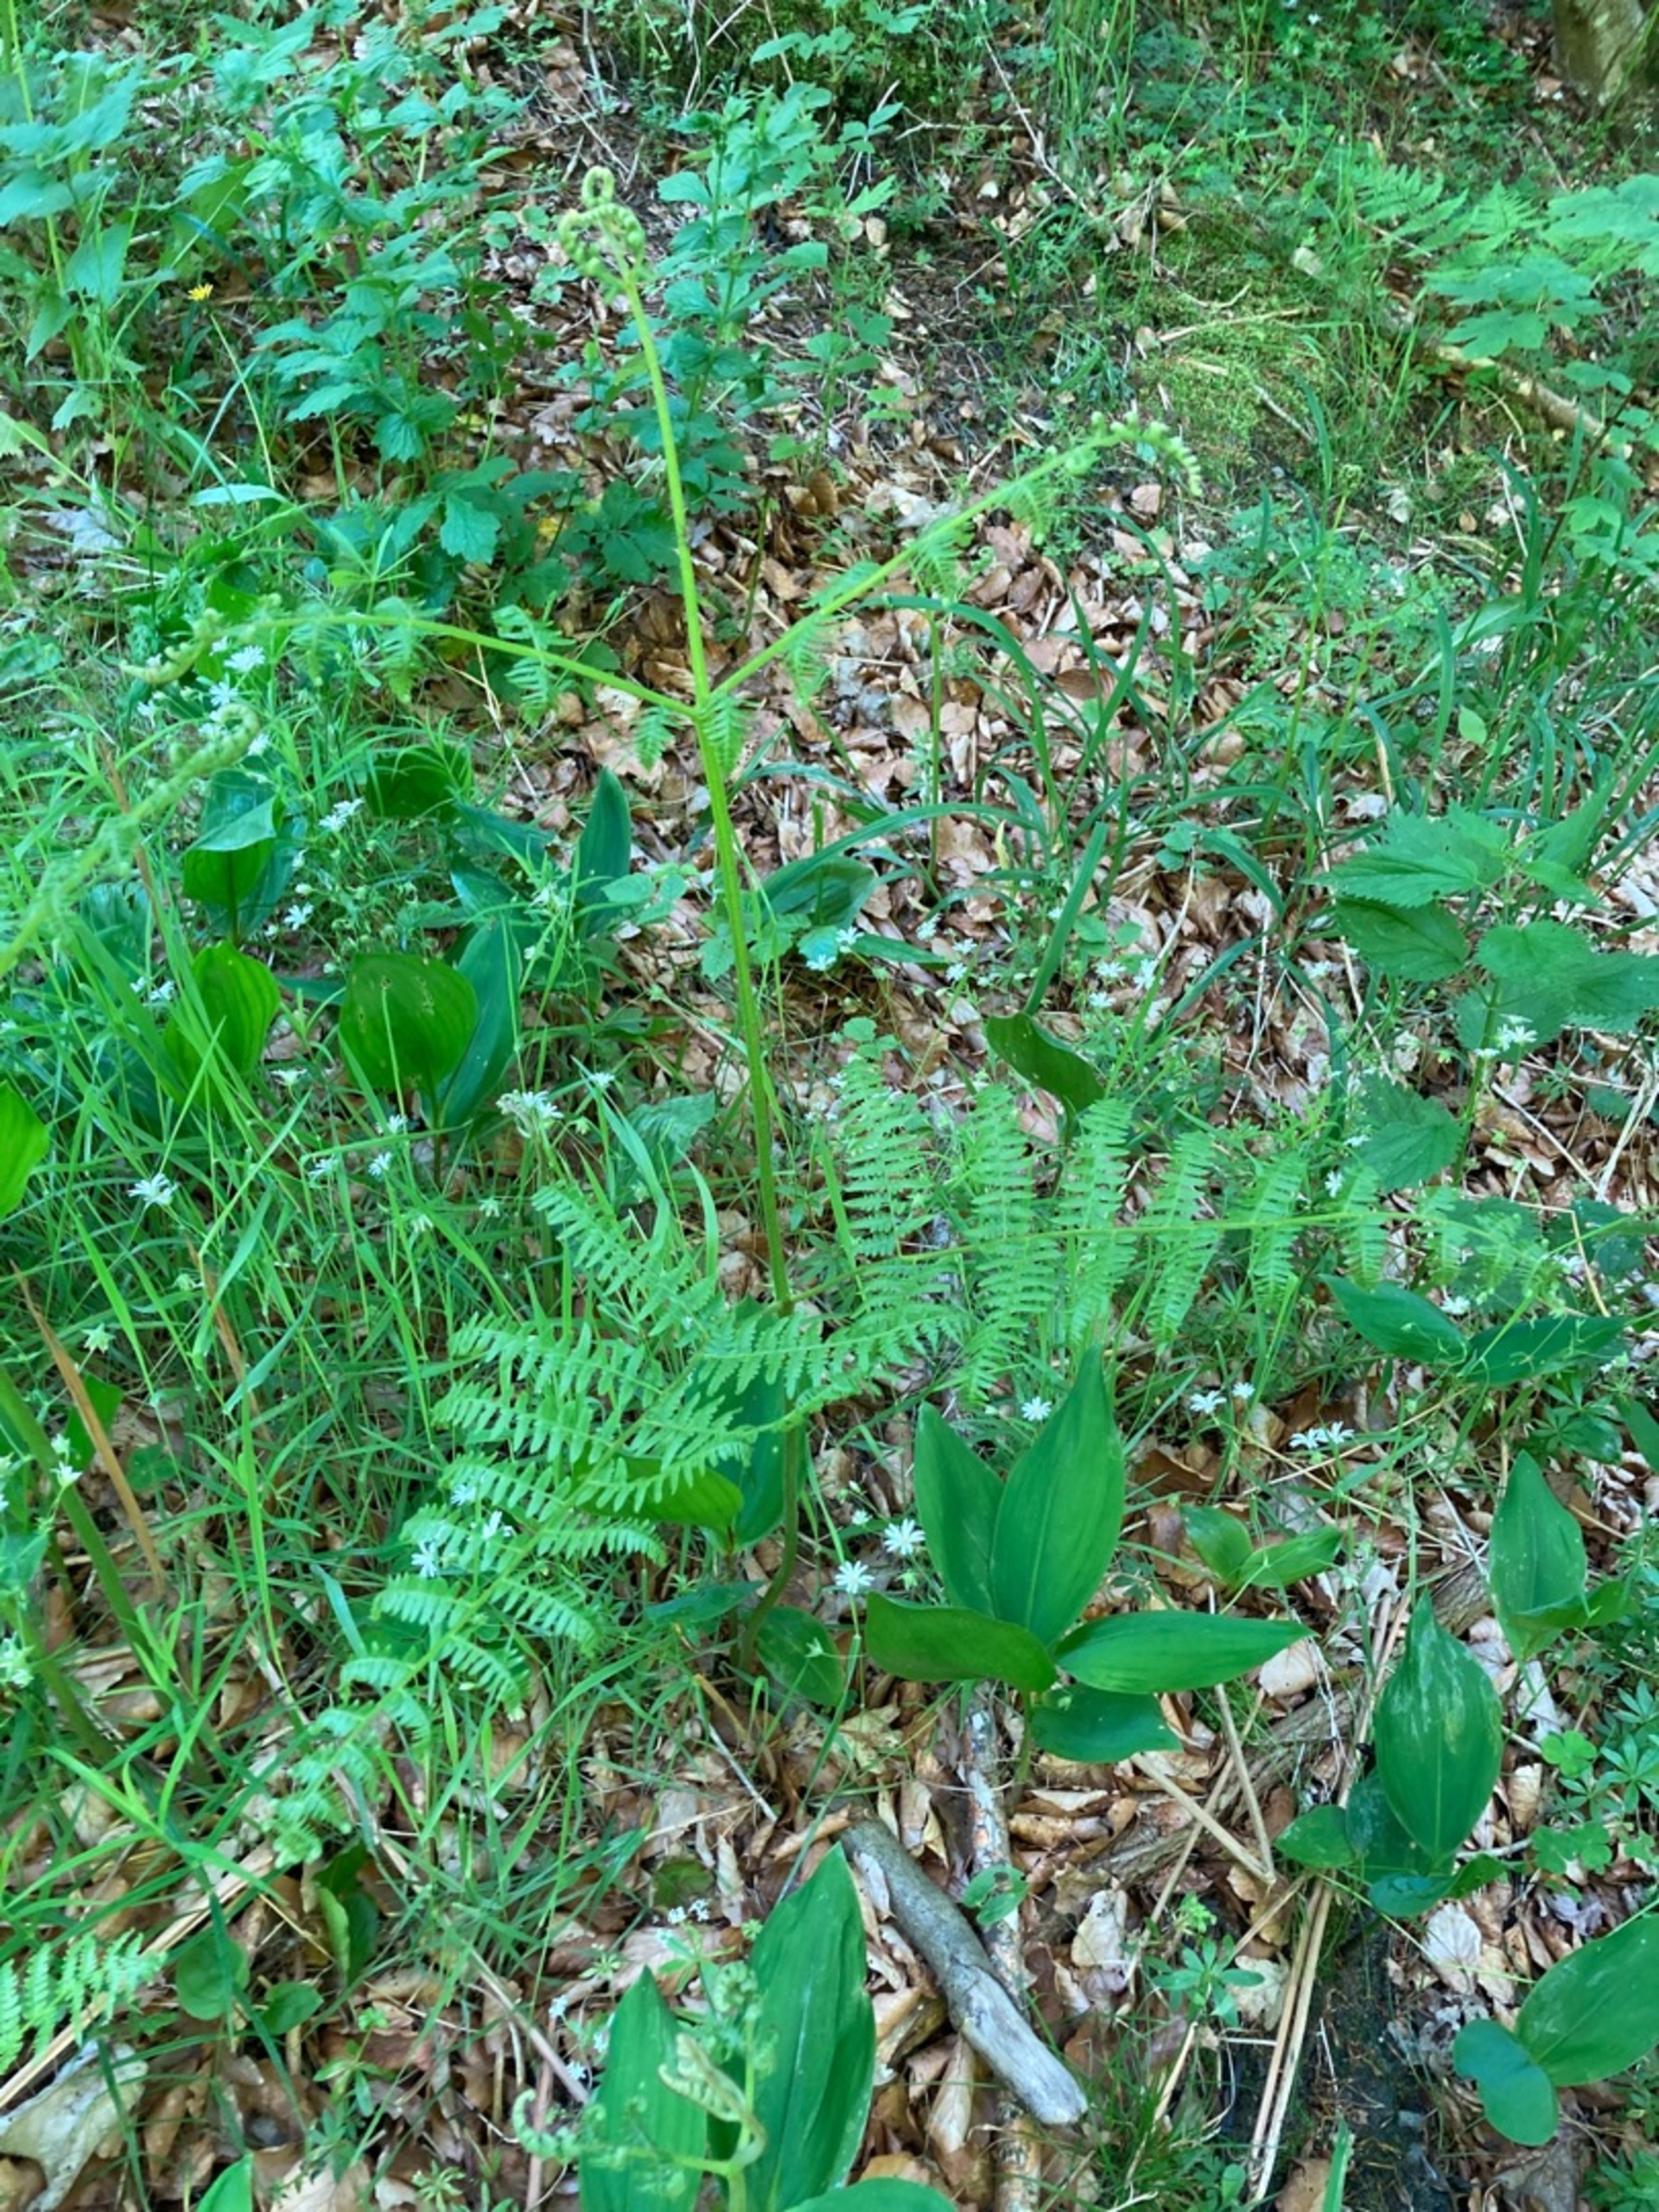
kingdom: Plantae
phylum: Tracheophyta
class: Polypodiopsida
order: Polypodiales
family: Dennstaedtiaceae
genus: Pteridium
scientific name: Pteridium aquilinum
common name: Ørnebregne
